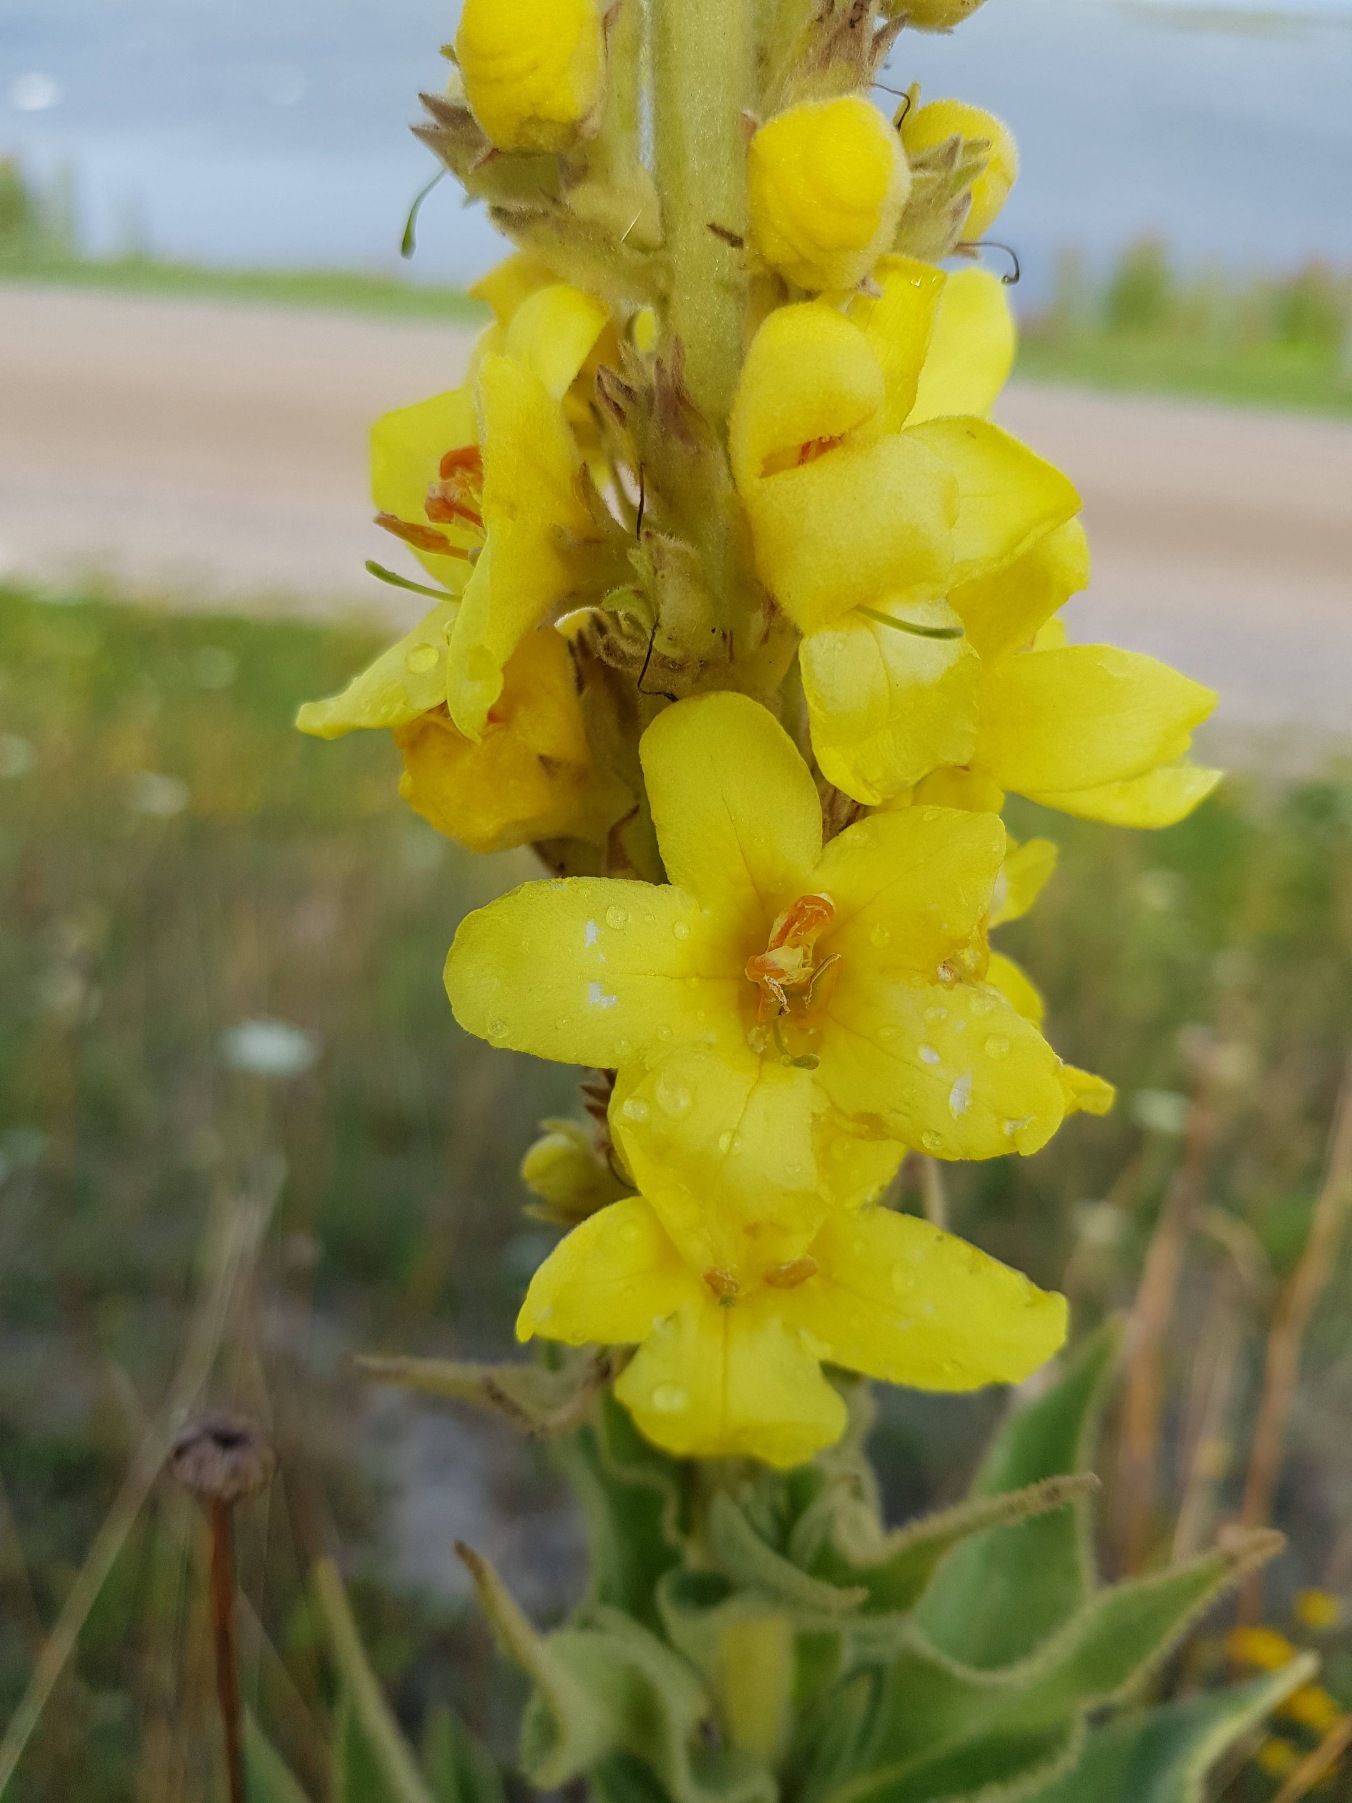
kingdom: Plantae
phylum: Tracheophyta
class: Magnoliopsida
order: Lamiales
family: Scrophulariaceae
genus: Verbascum
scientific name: Verbascum densiflorum
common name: Uldbladet kongelys
